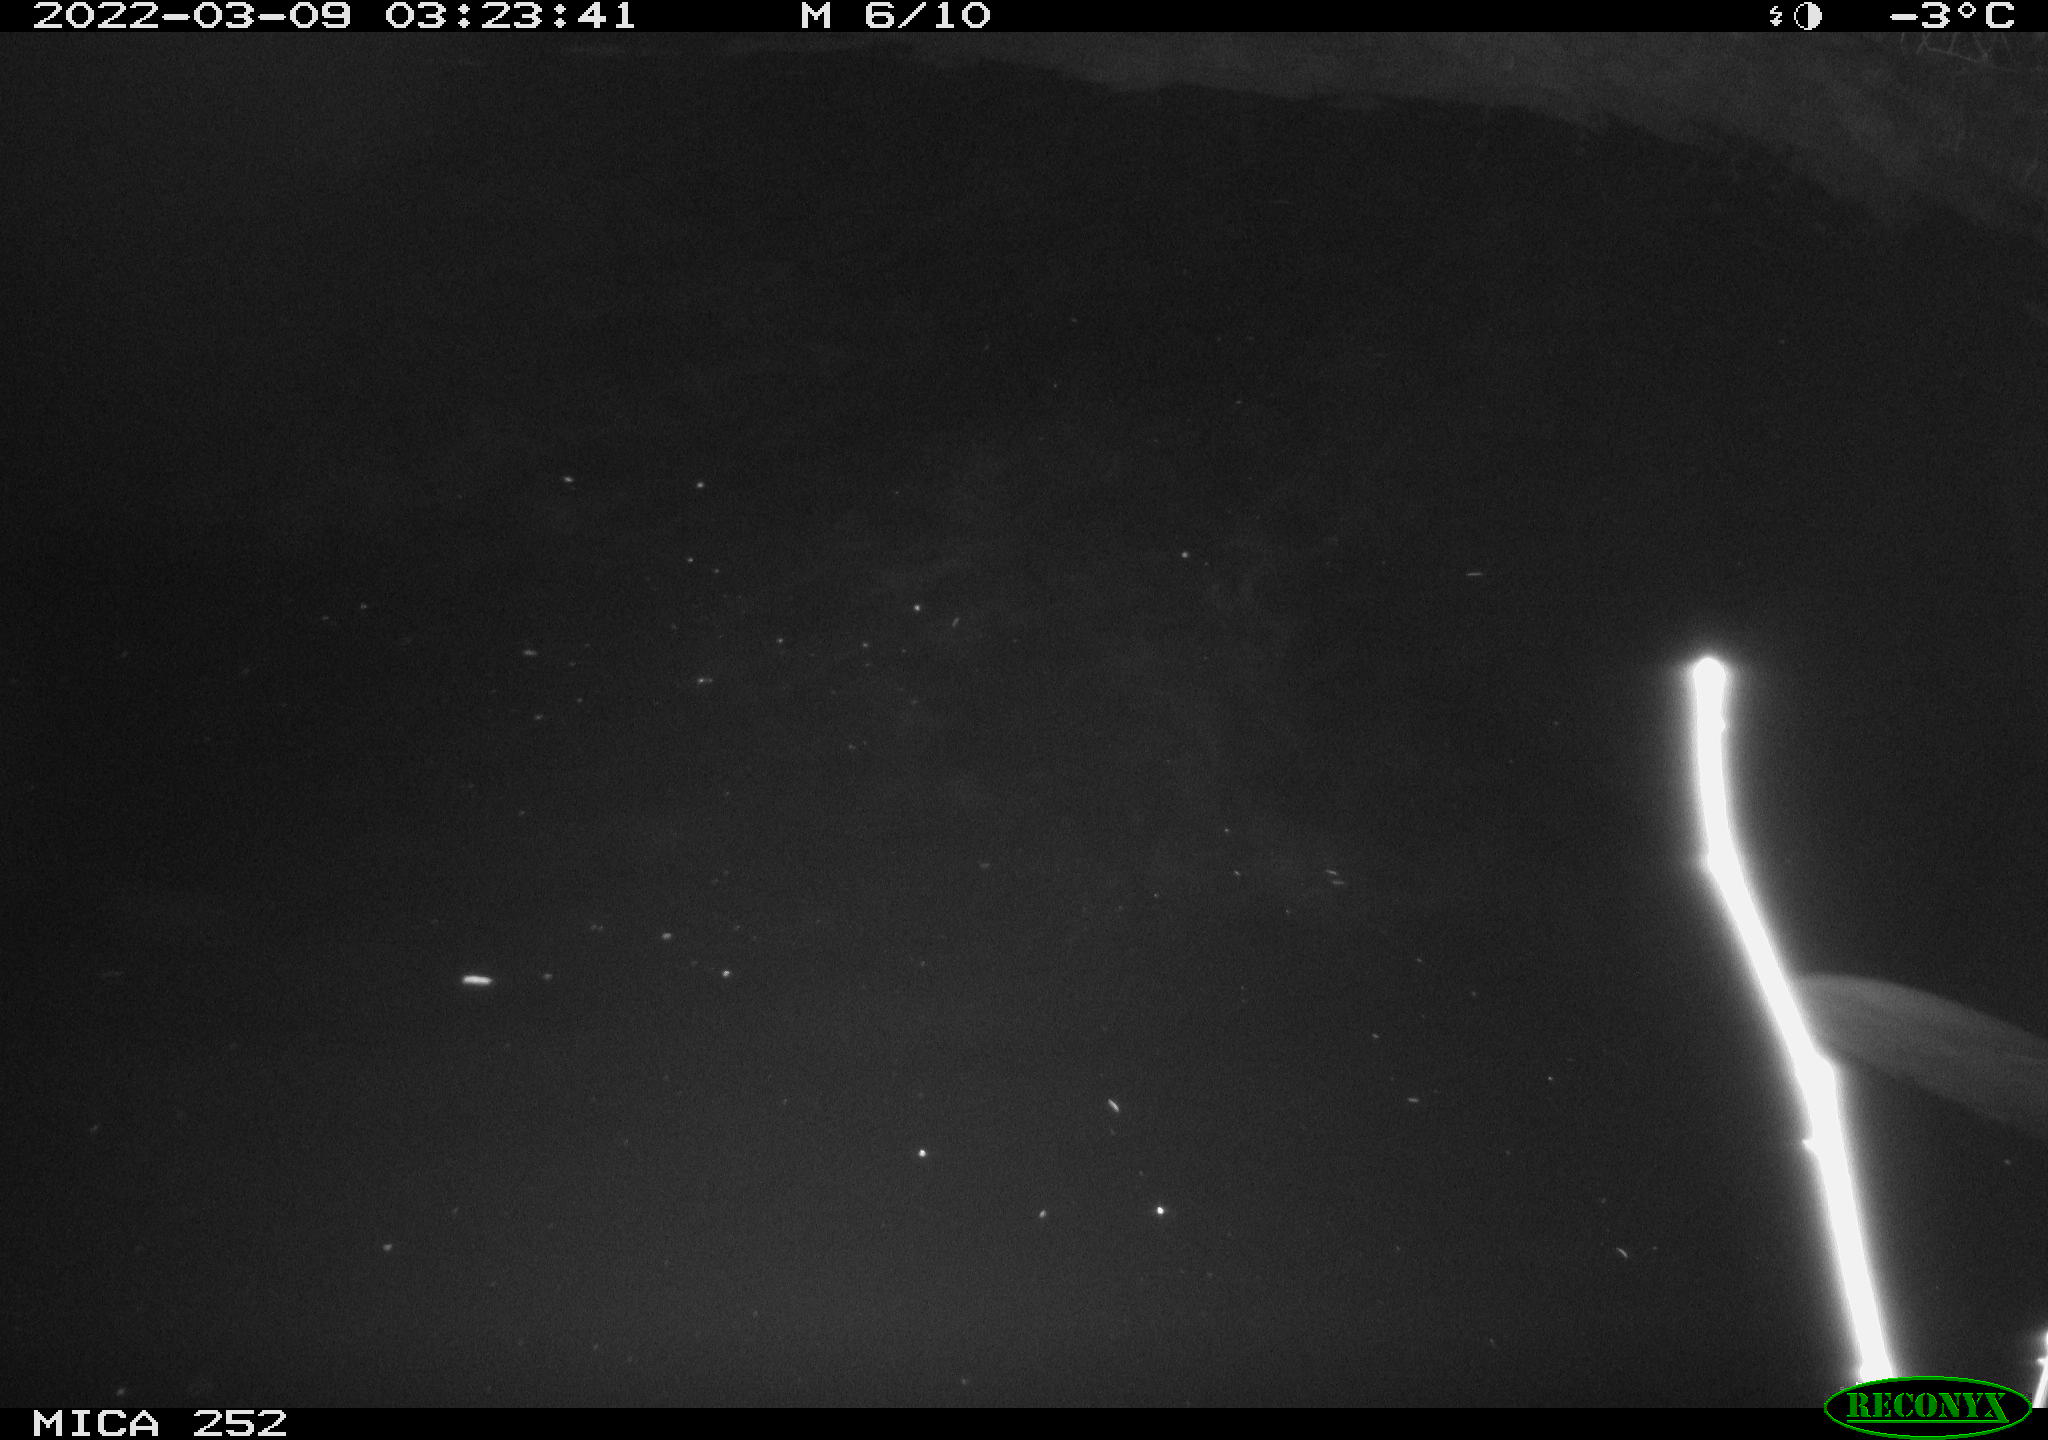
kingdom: Animalia
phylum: Chordata
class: Mammalia
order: Rodentia
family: Castoridae
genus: Castor
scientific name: Castor fiber
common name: Eurasian beaver
